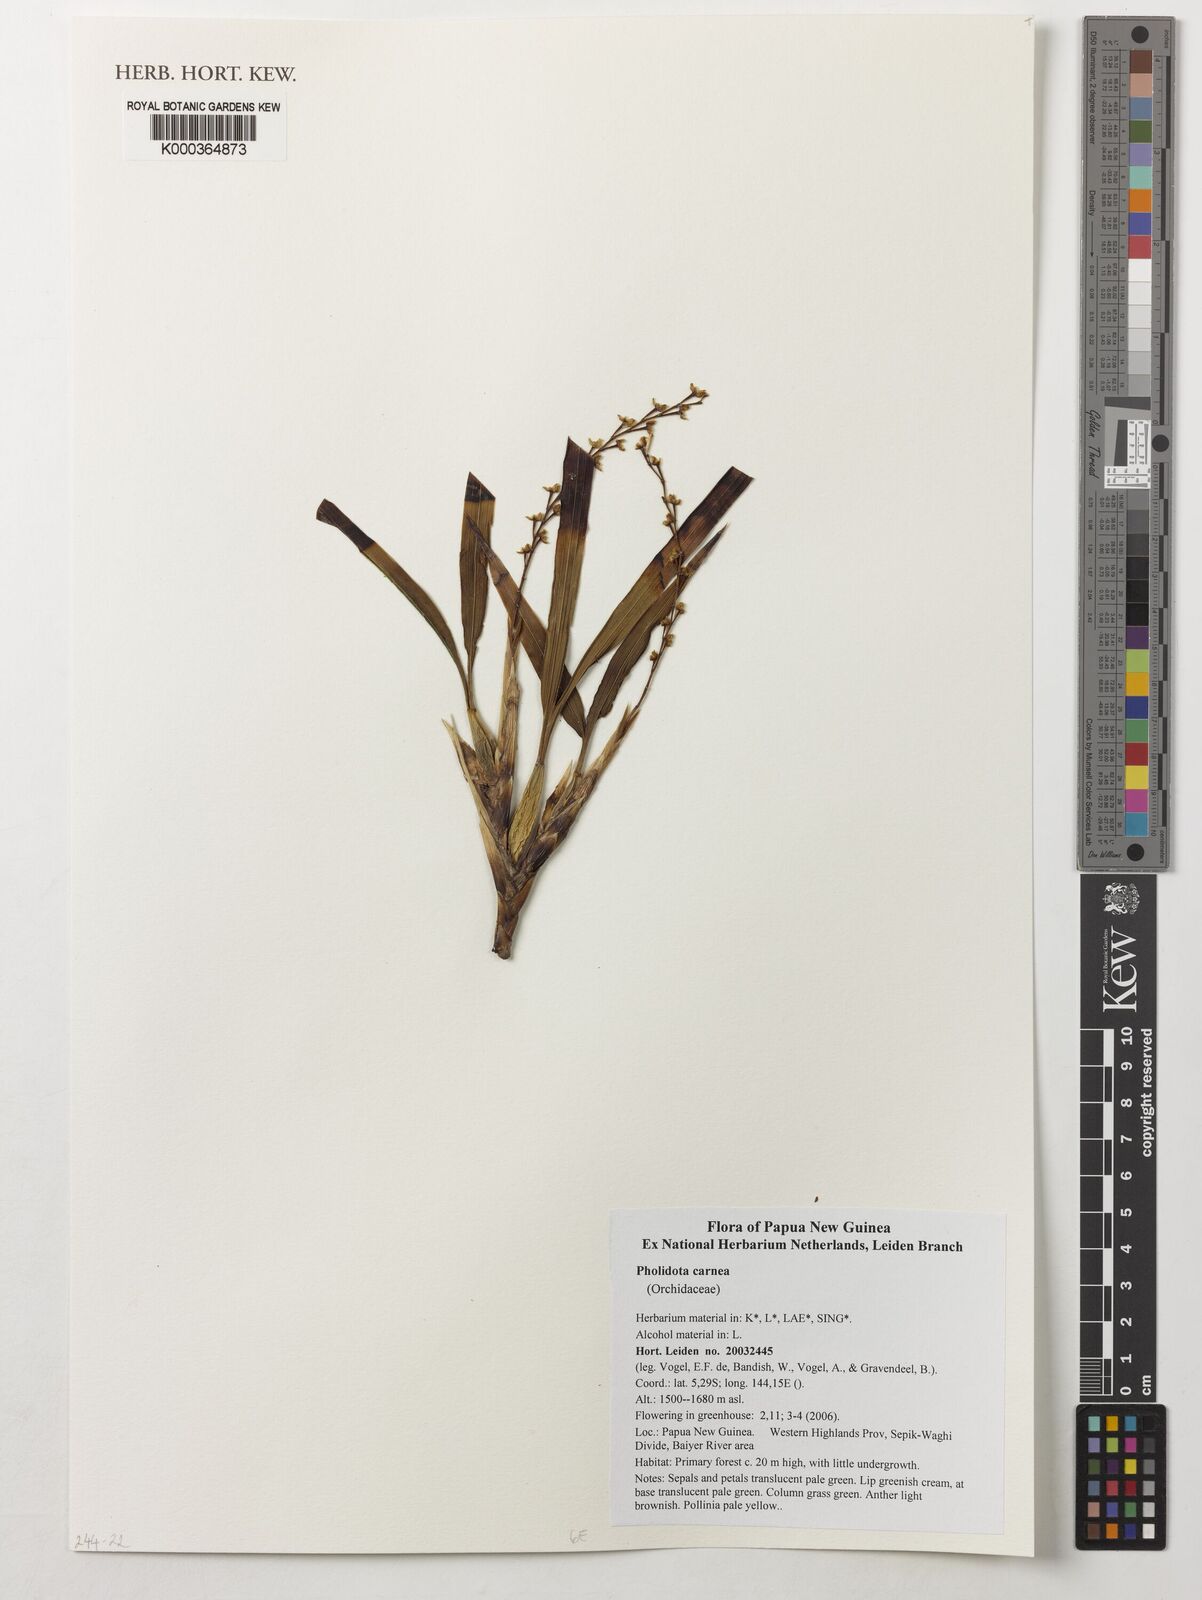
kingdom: Plantae
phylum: Tracheophyta
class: Liliopsida
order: Asparagales
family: Orchidaceae
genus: Coelogyne
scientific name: Coelogyne carnea
